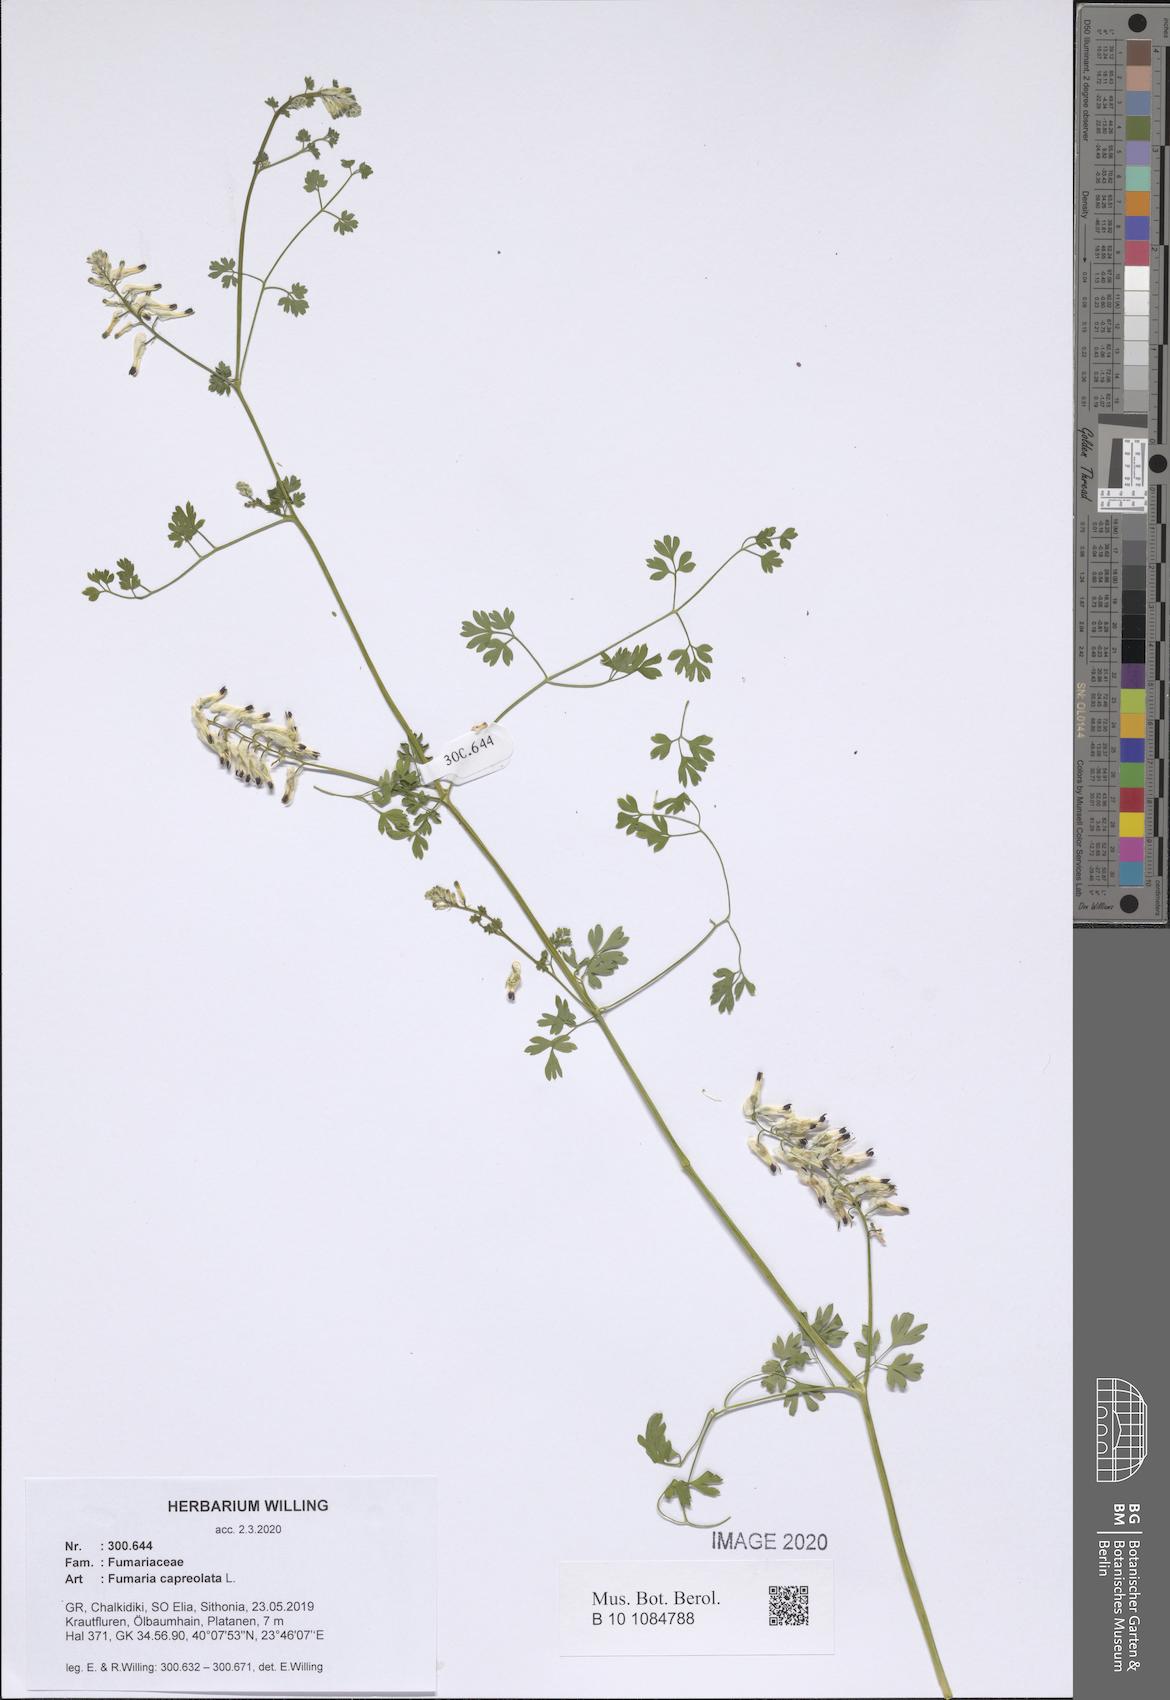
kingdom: Plantae
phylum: Tracheophyta
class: Magnoliopsida
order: Ranunculales
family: Papaveraceae
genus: Fumaria
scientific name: Fumaria capreolata
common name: White ramping-fumitory
